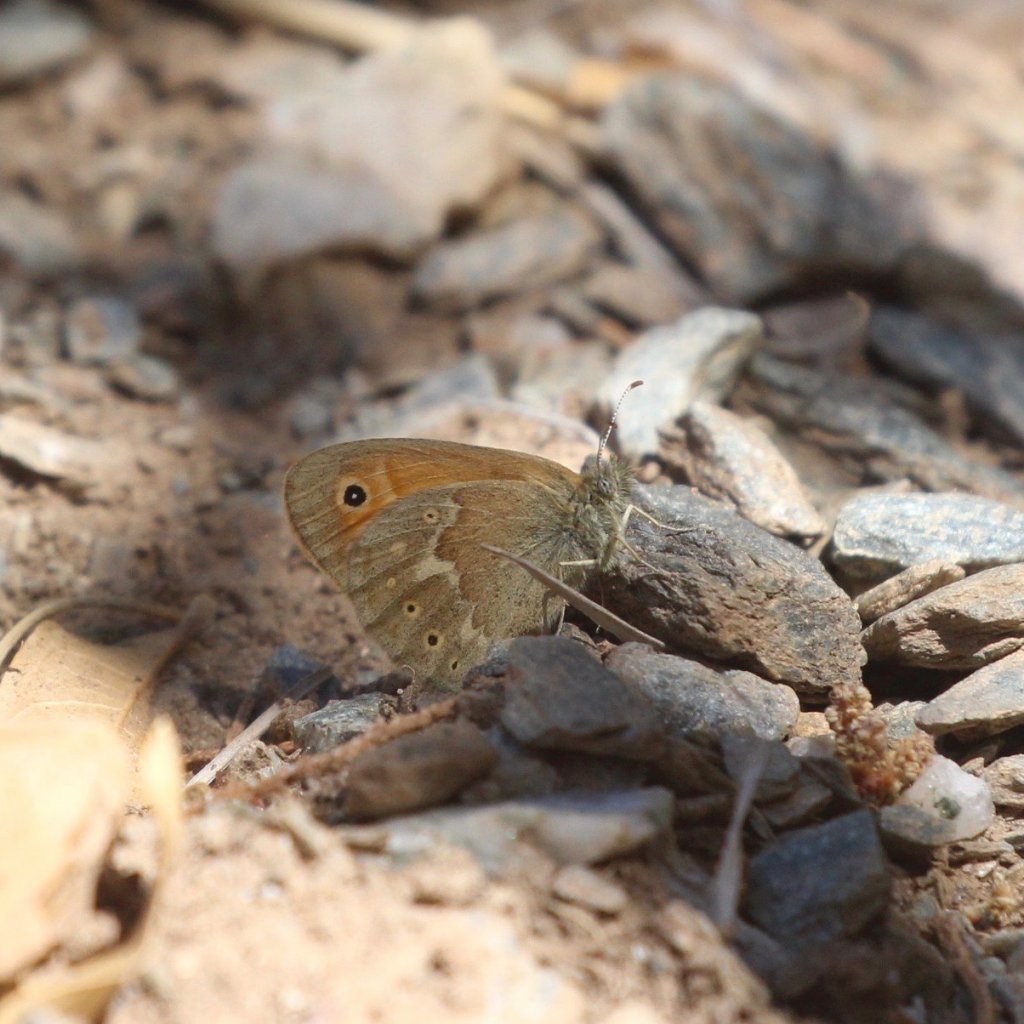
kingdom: Animalia
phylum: Arthropoda
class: Insecta
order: Lepidoptera
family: Nymphalidae
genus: Coenonympha
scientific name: Coenonympha tullia
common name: Large Heath
